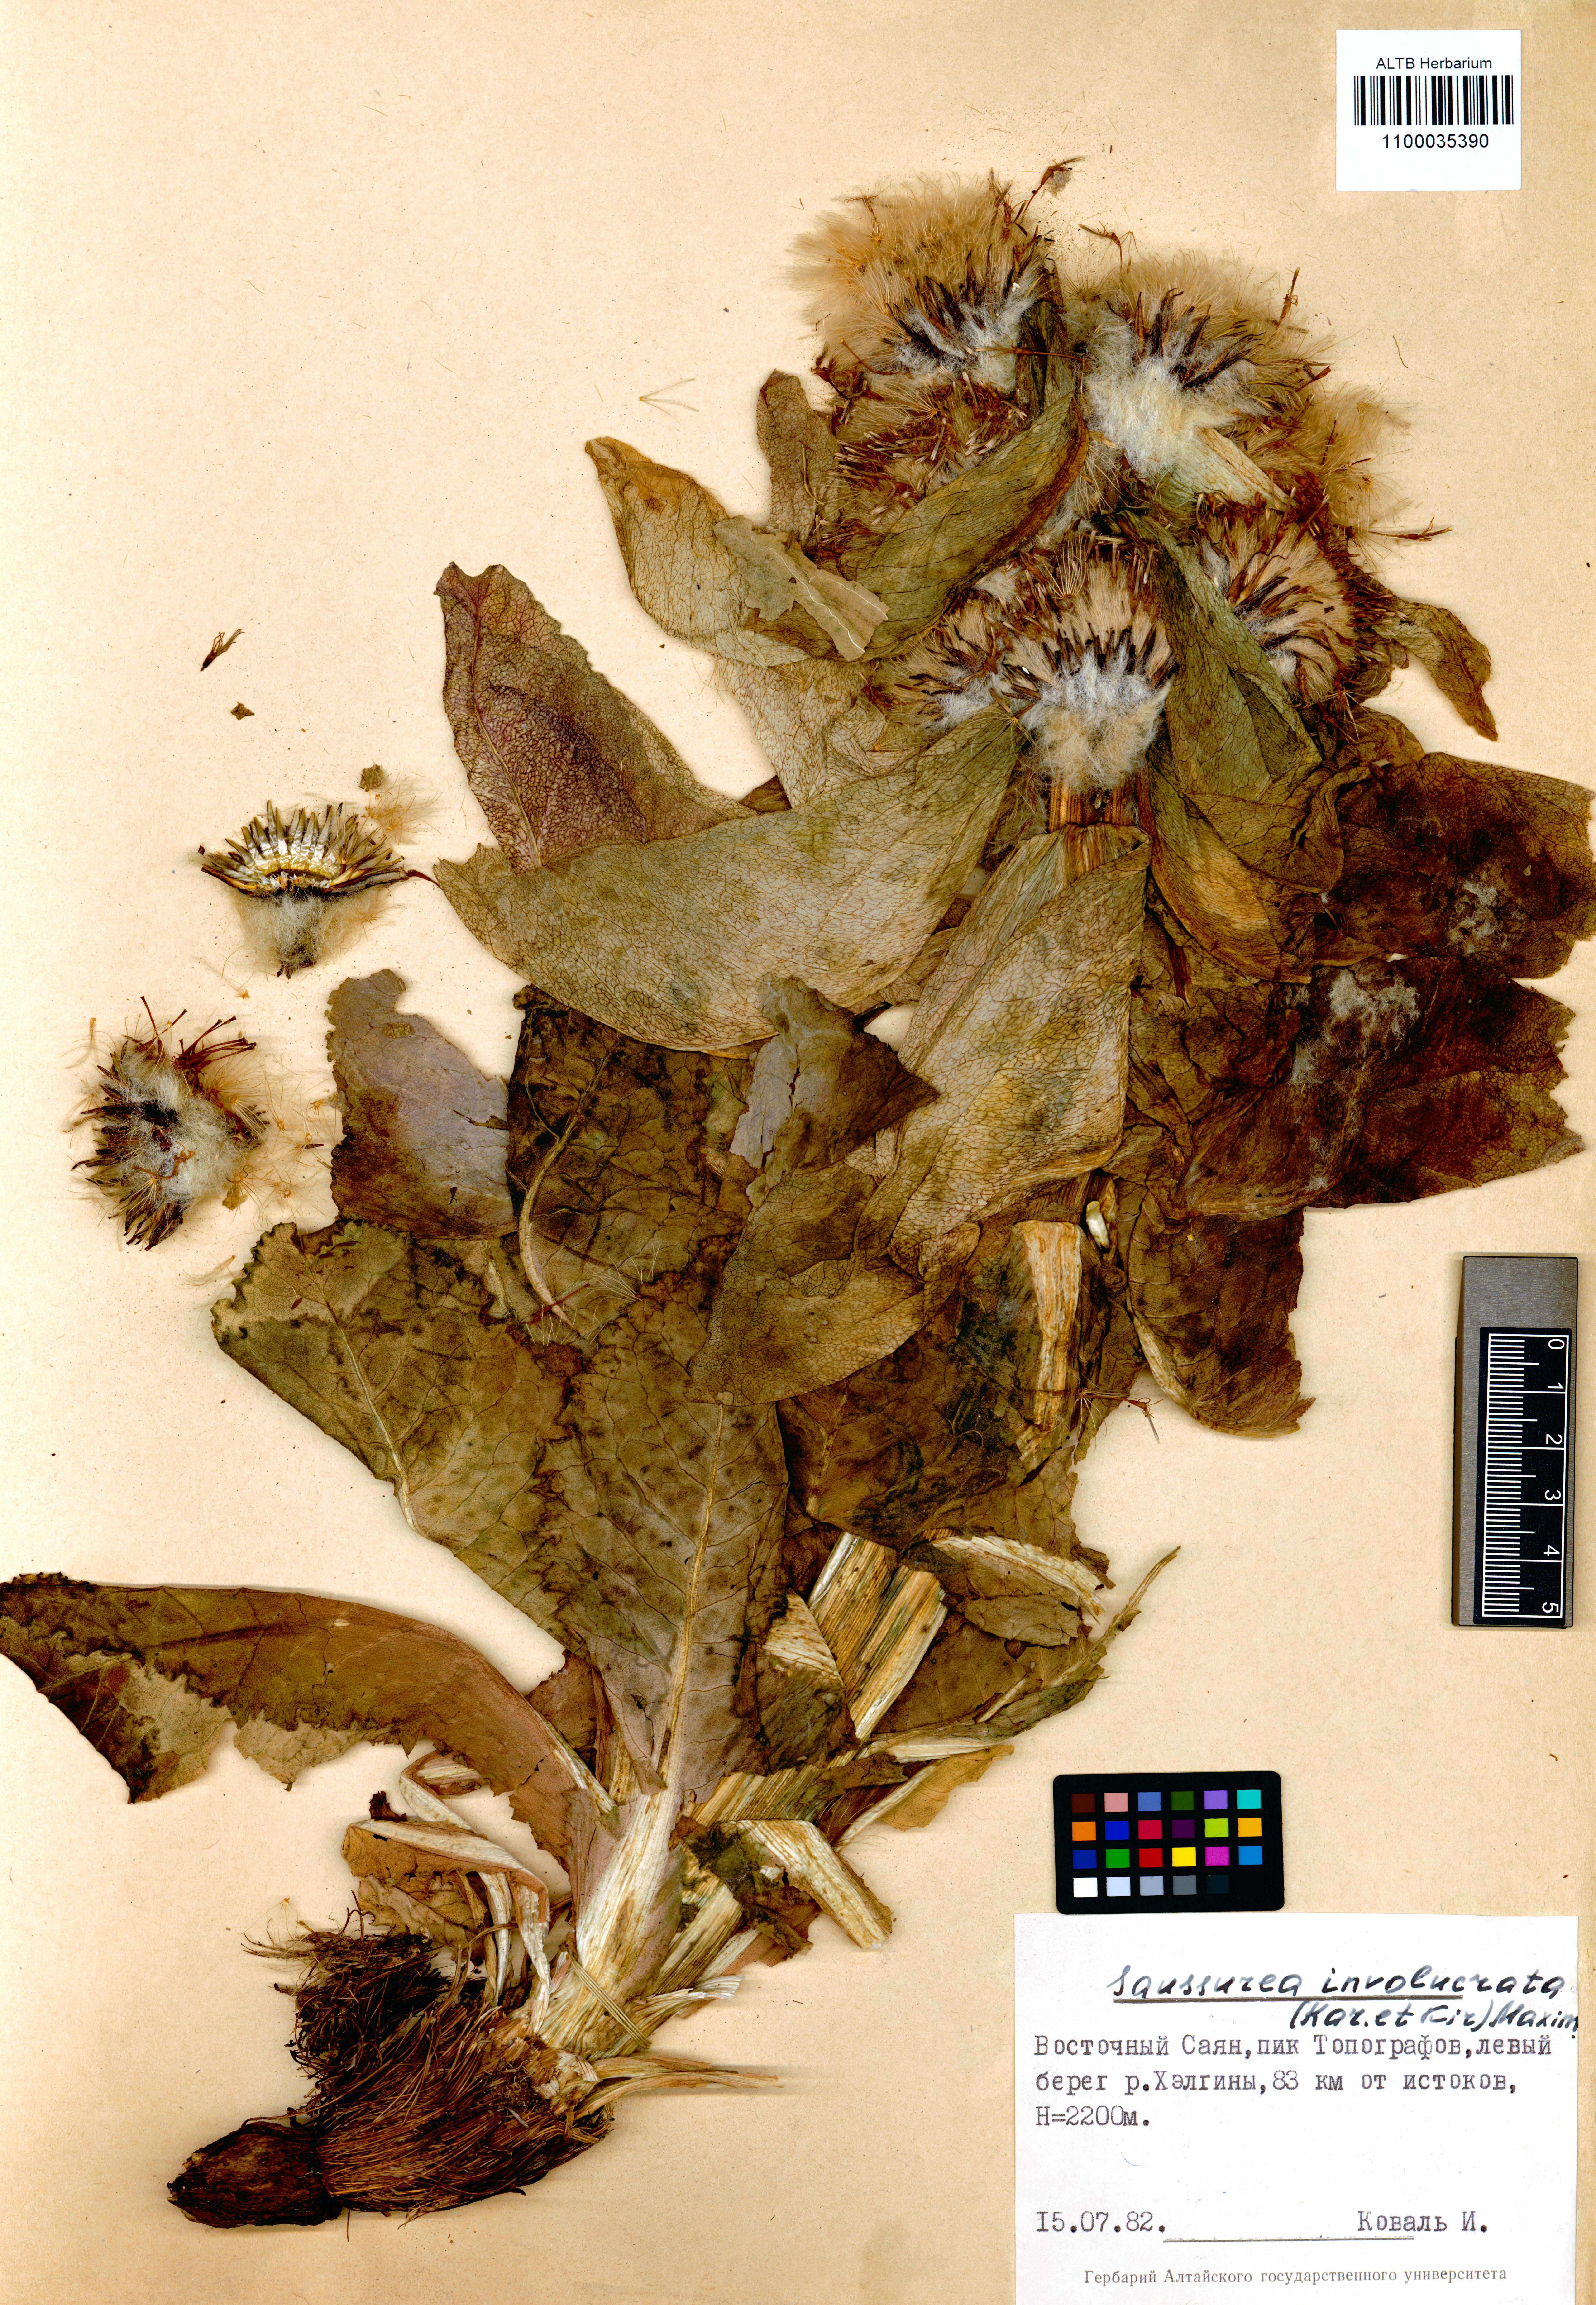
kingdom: Plantae
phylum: Tracheophyta
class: Magnoliopsida
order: Asterales
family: Asteraceae
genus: Saussurea
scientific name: Saussurea involucrata
